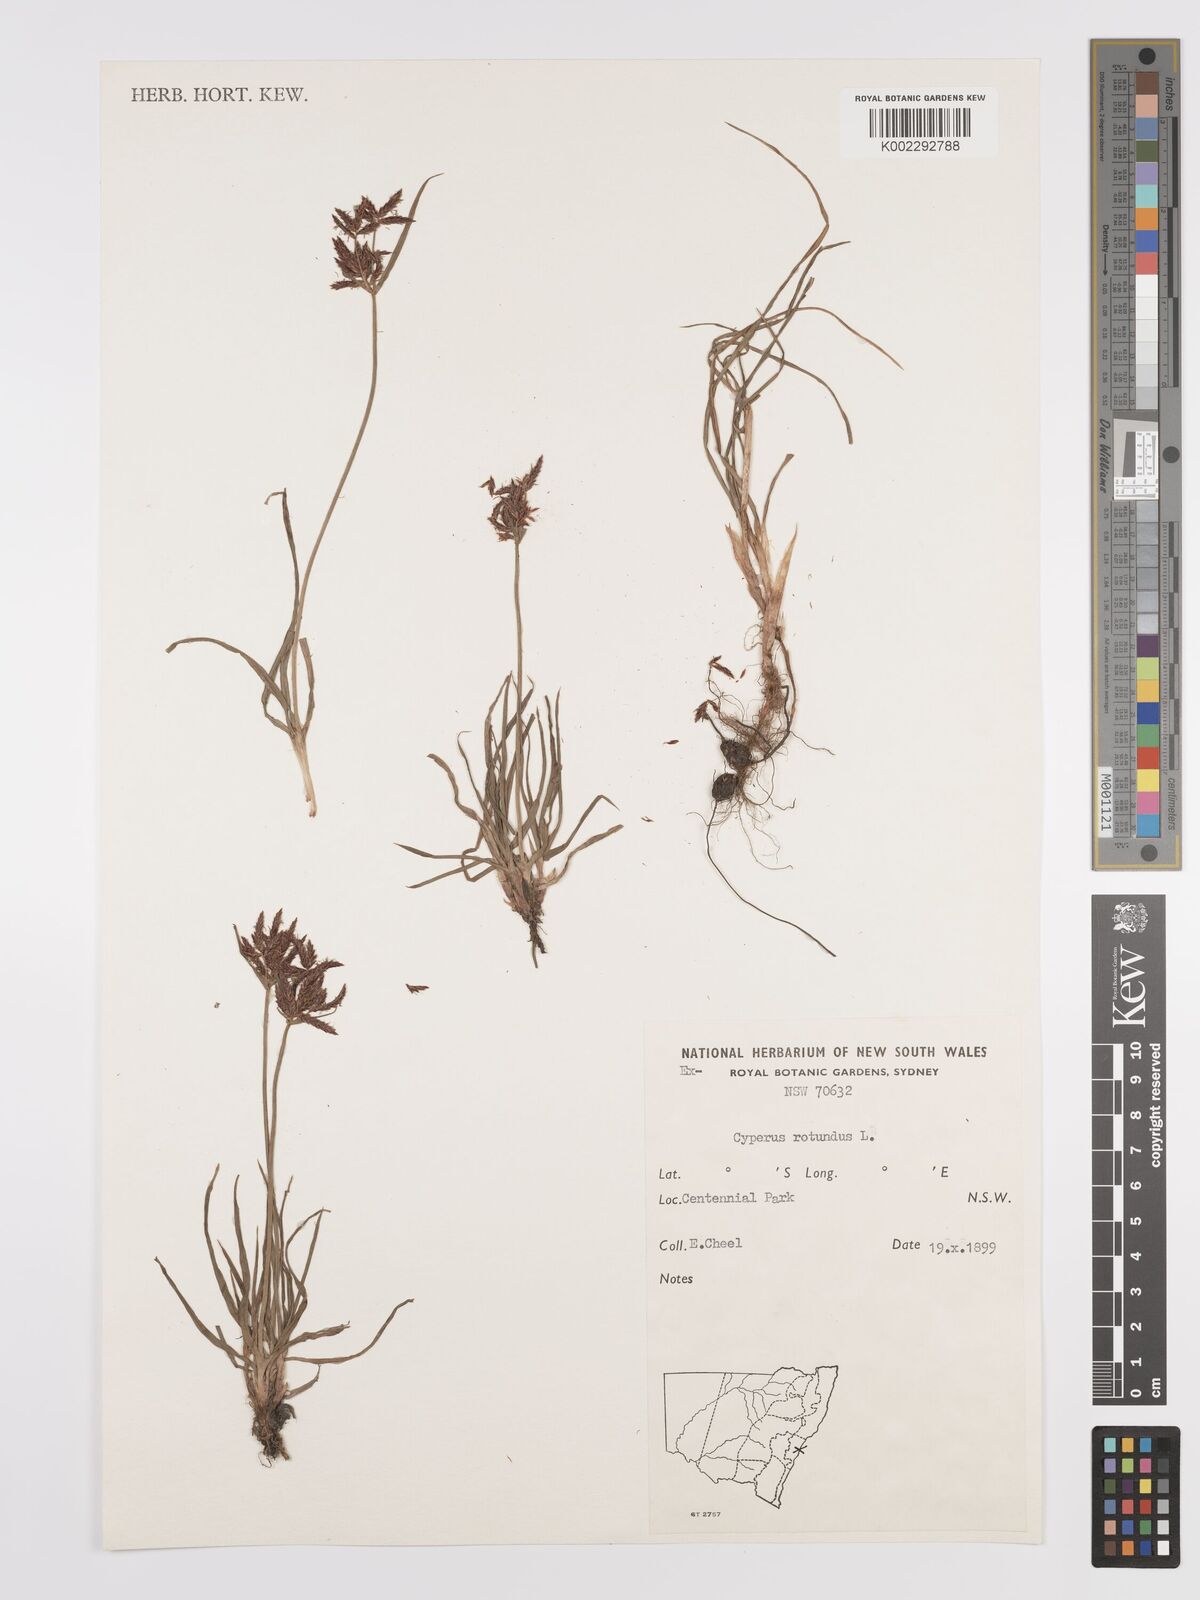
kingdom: Plantae
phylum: Tracheophyta
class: Liliopsida
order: Poales
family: Cyperaceae
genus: Cyperus
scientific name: Cyperus rotundus
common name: Nutgrass
